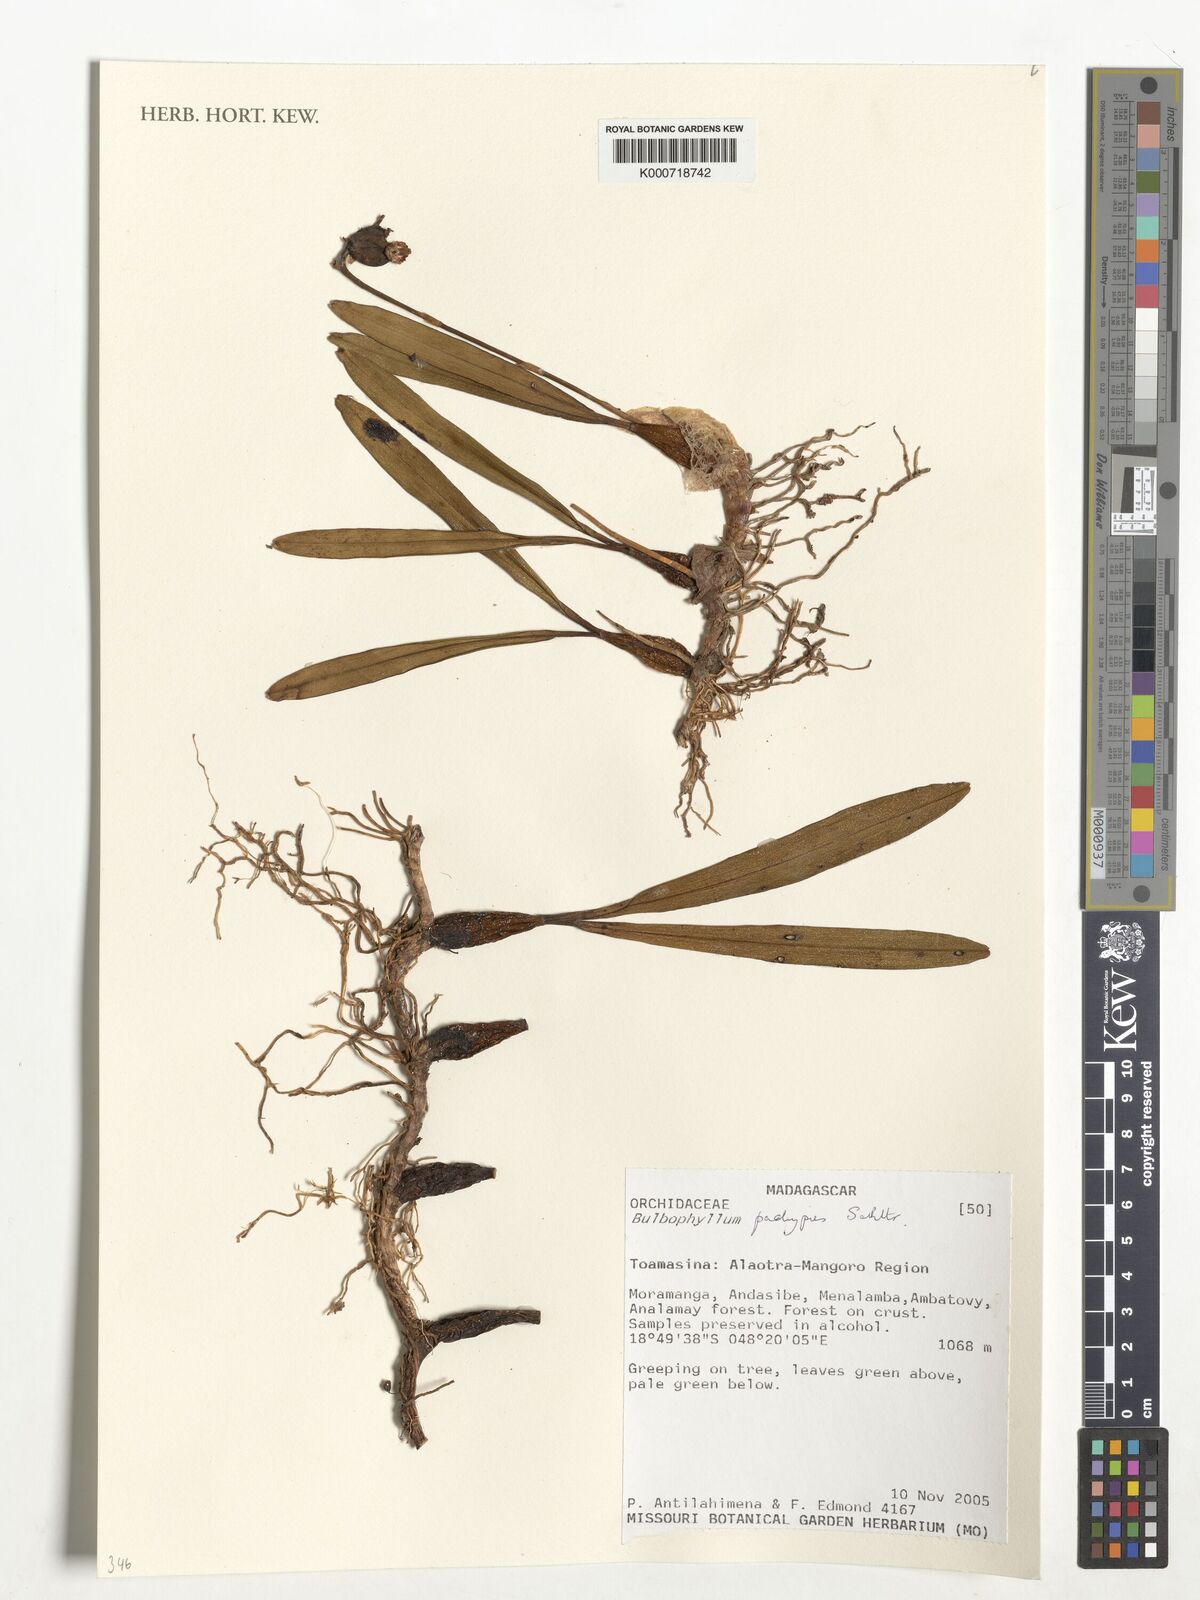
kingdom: Plantae
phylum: Tracheophyta
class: Liliopsida
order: Asparagales
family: Orchidaceae
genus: Bulbophyllum
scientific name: Bulbophyllum
